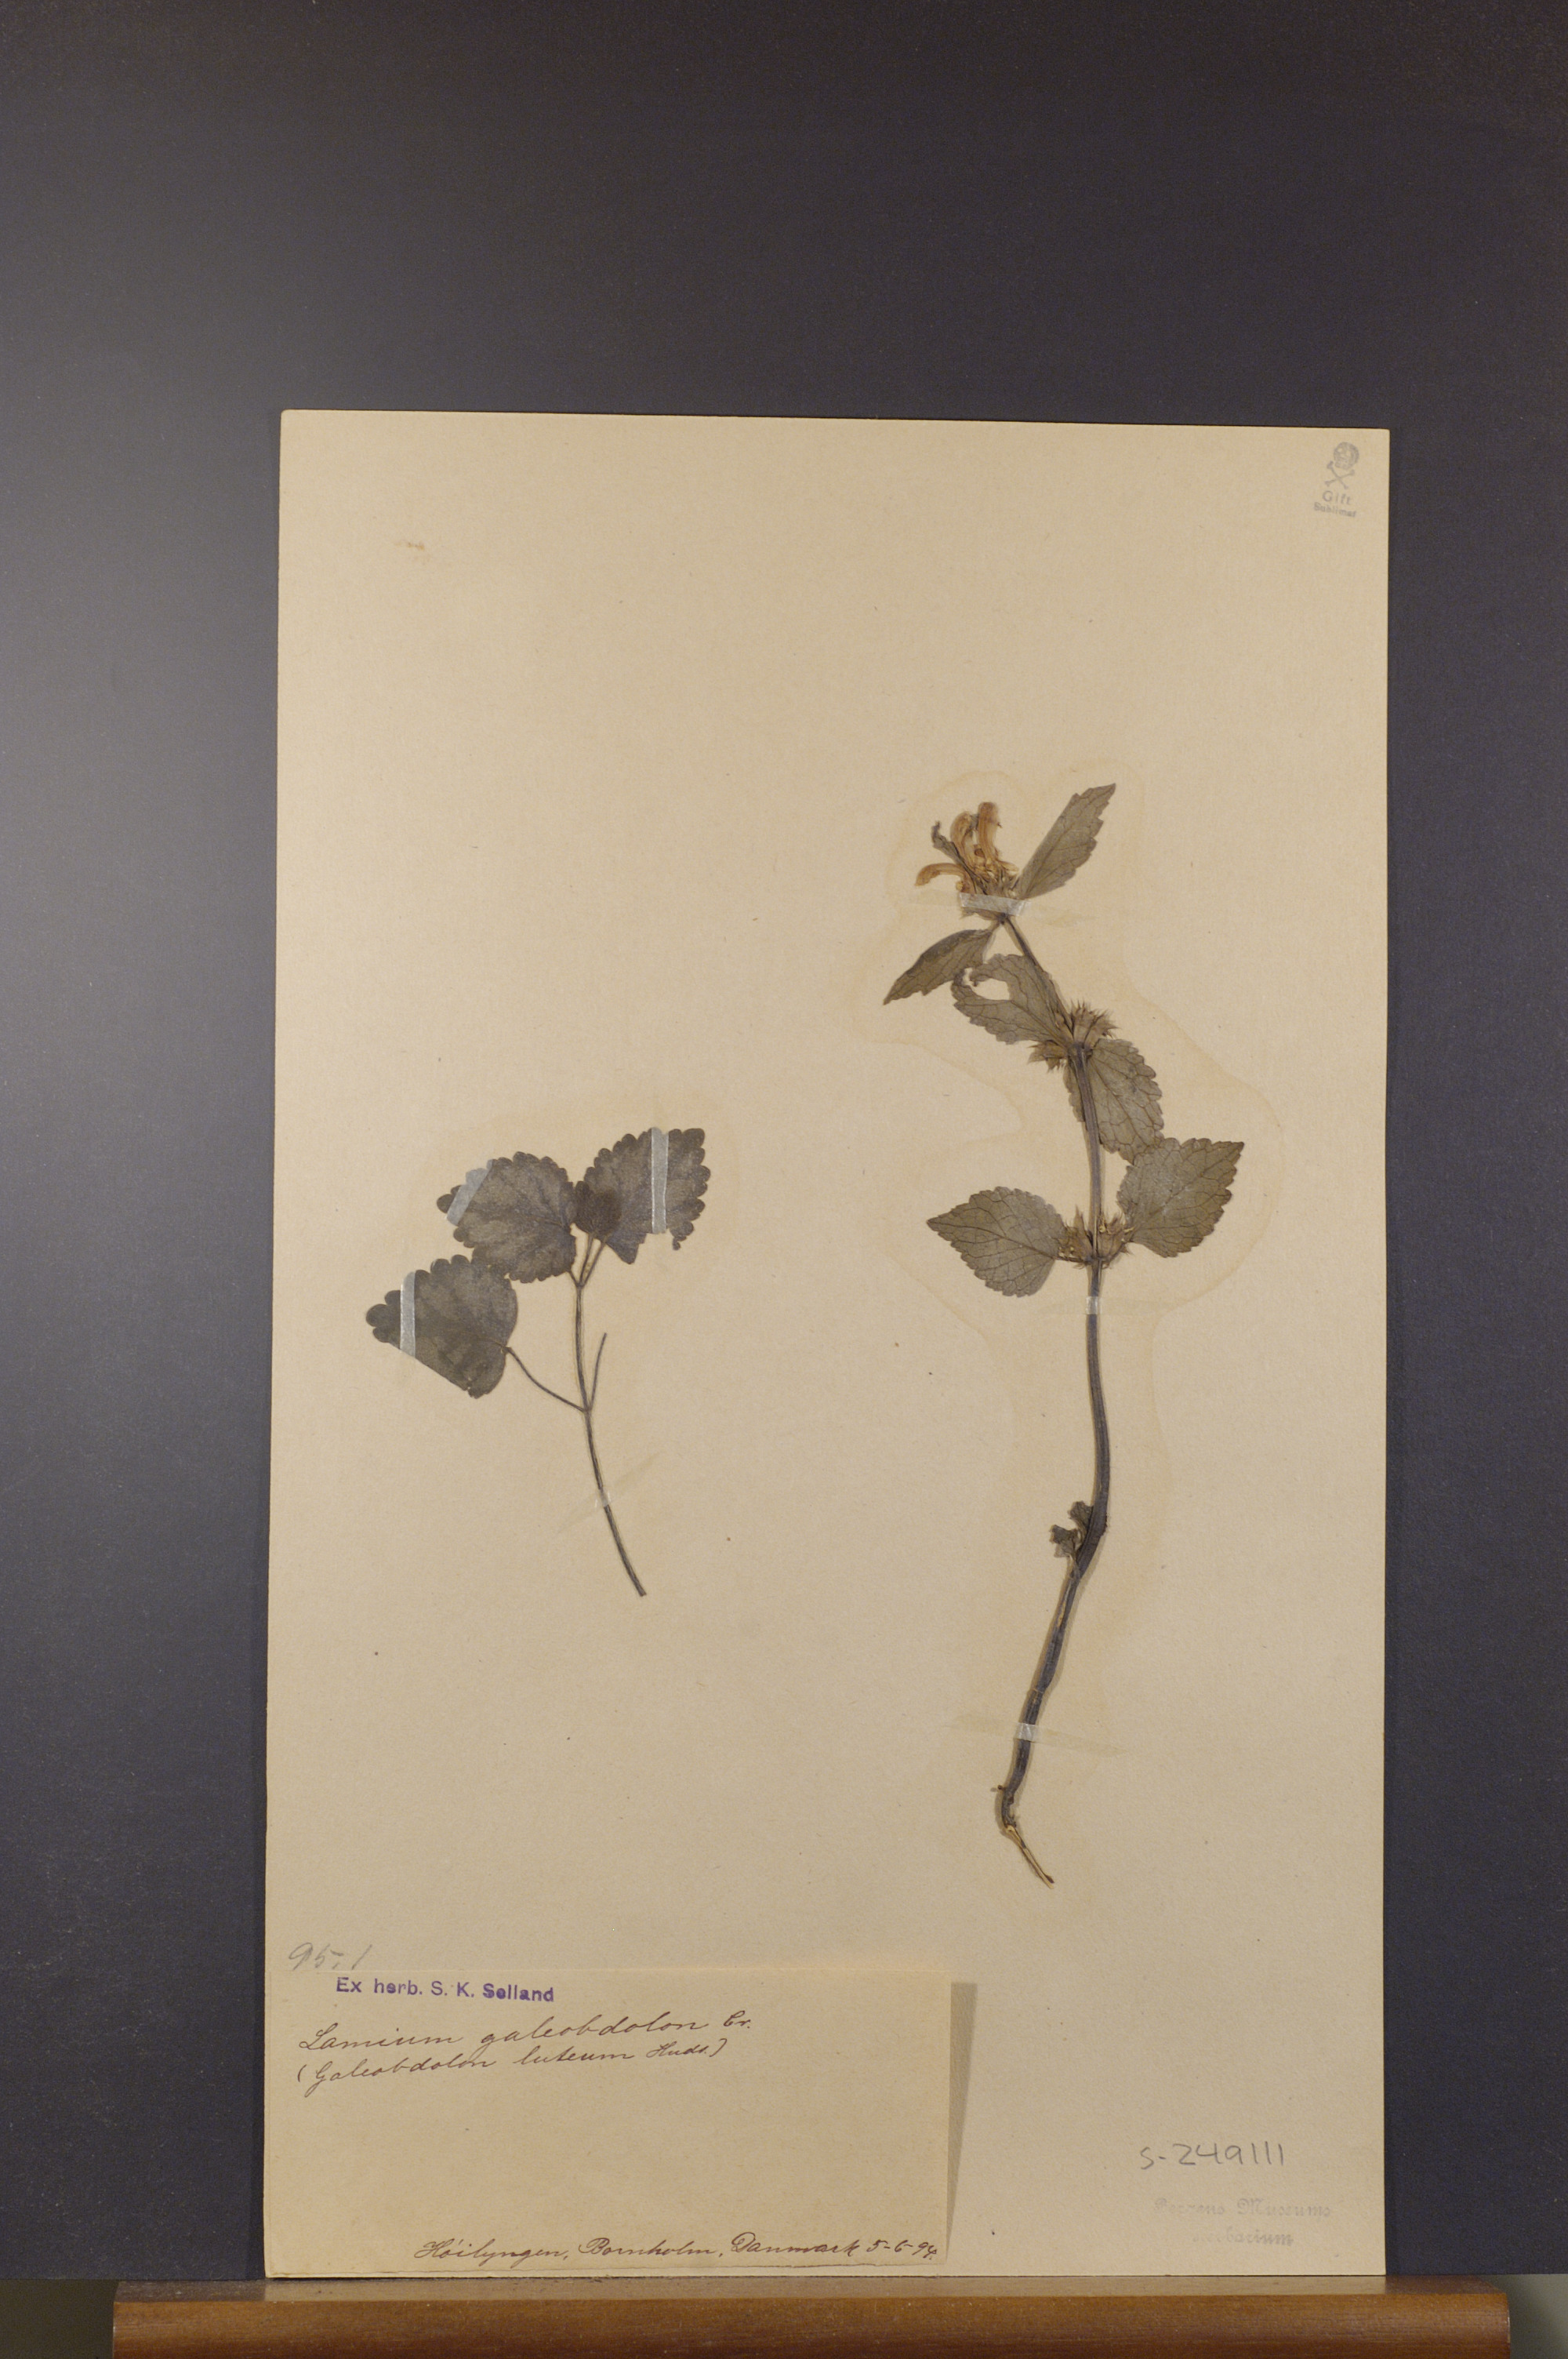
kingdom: Plantae
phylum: Tracheophyta
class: Magnoliopsida
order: Lamiales
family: Lamiaceae
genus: Lamium
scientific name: Lamium galeobdolon
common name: Yellow archangel
